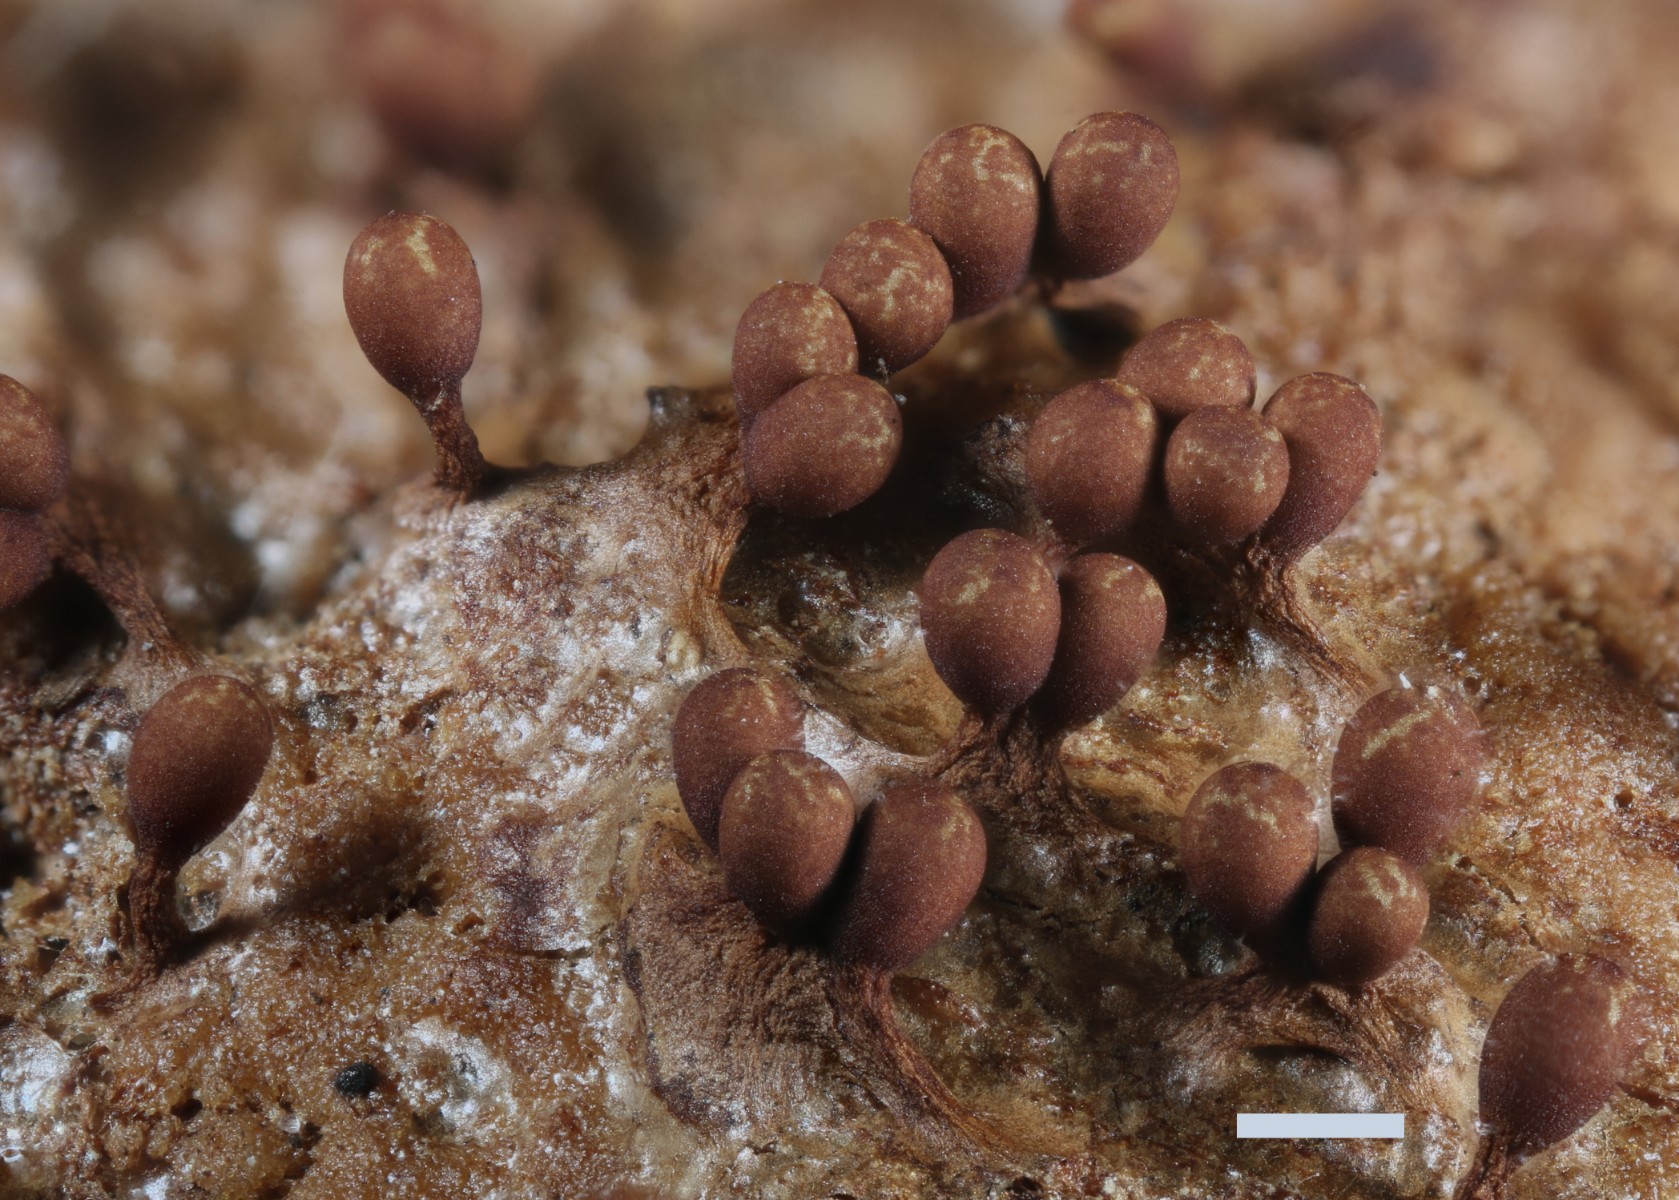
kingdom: Protozoa
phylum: Mycetozoa
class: Myxomycetes
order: Trichiales
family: Trichiaceae
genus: Trichia
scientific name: Trichia ambigua
